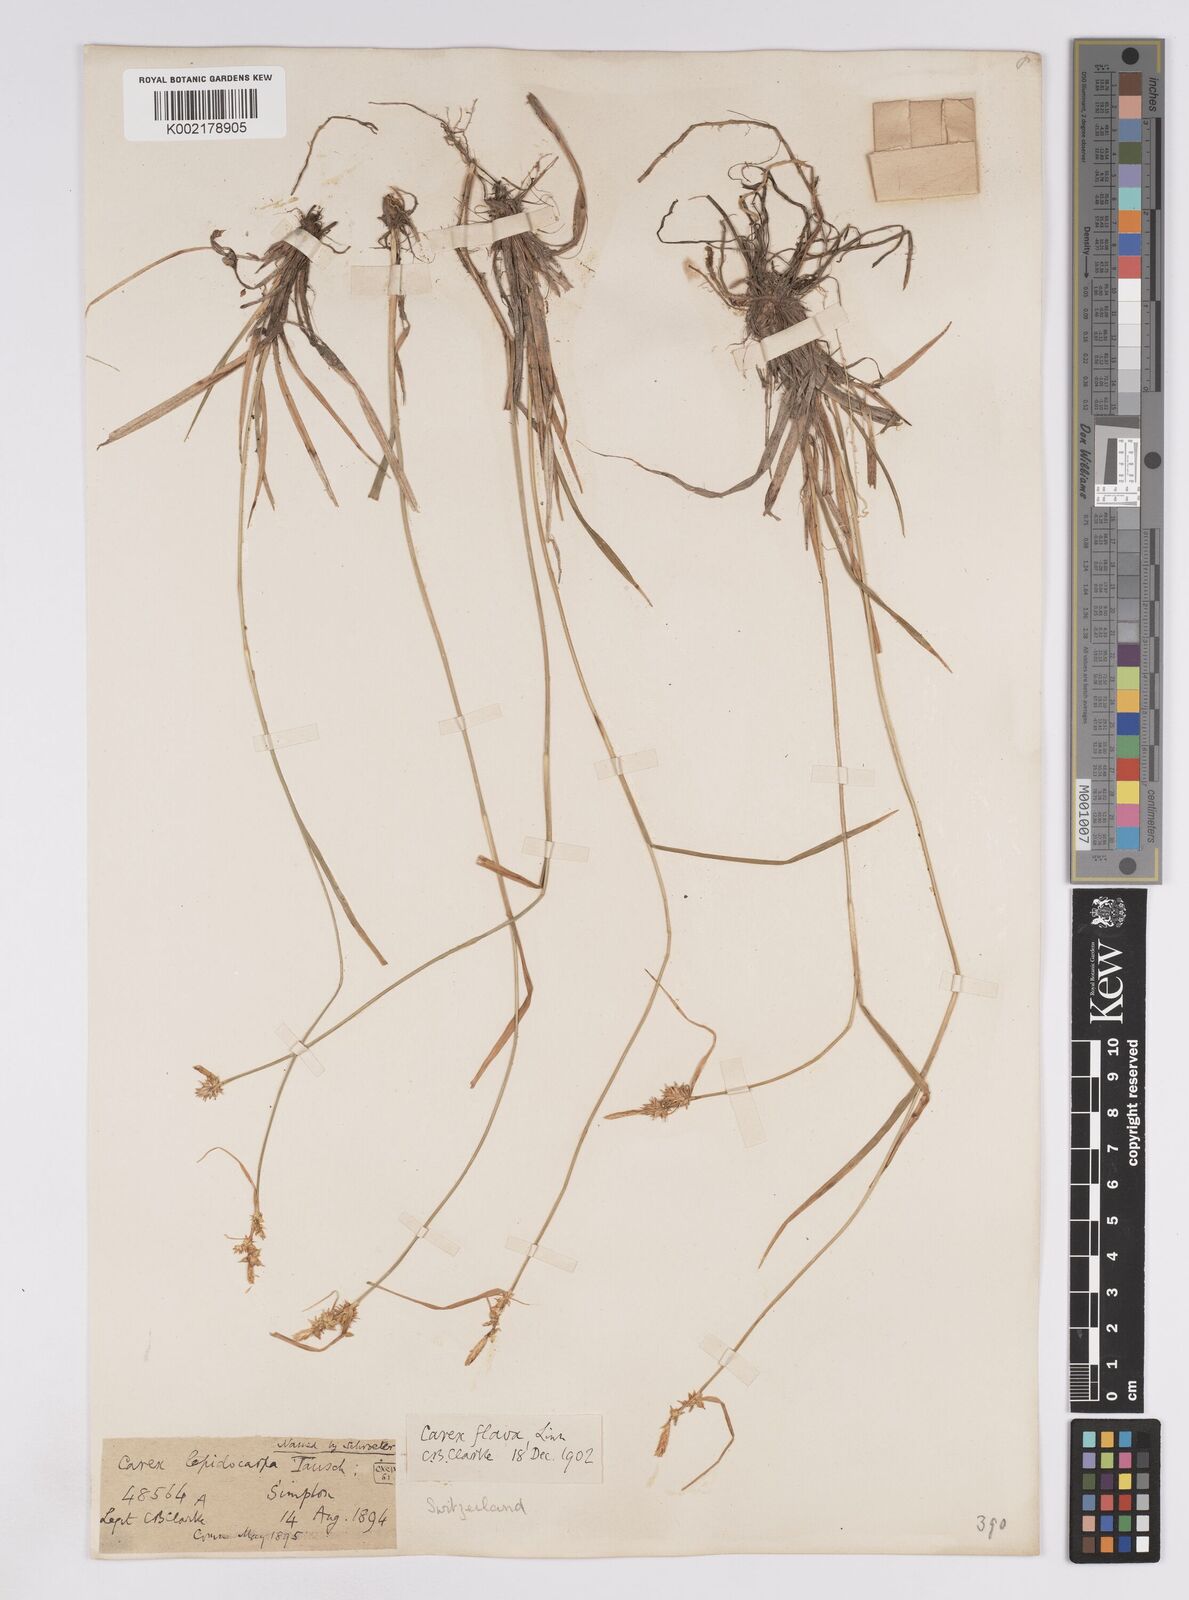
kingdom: Plantae
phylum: Tracheophyta
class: Liliopsida
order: Poales
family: Cyperaceae
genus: Carex
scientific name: Carex lepidocarpa
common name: Long-stalked yellow-sedge
